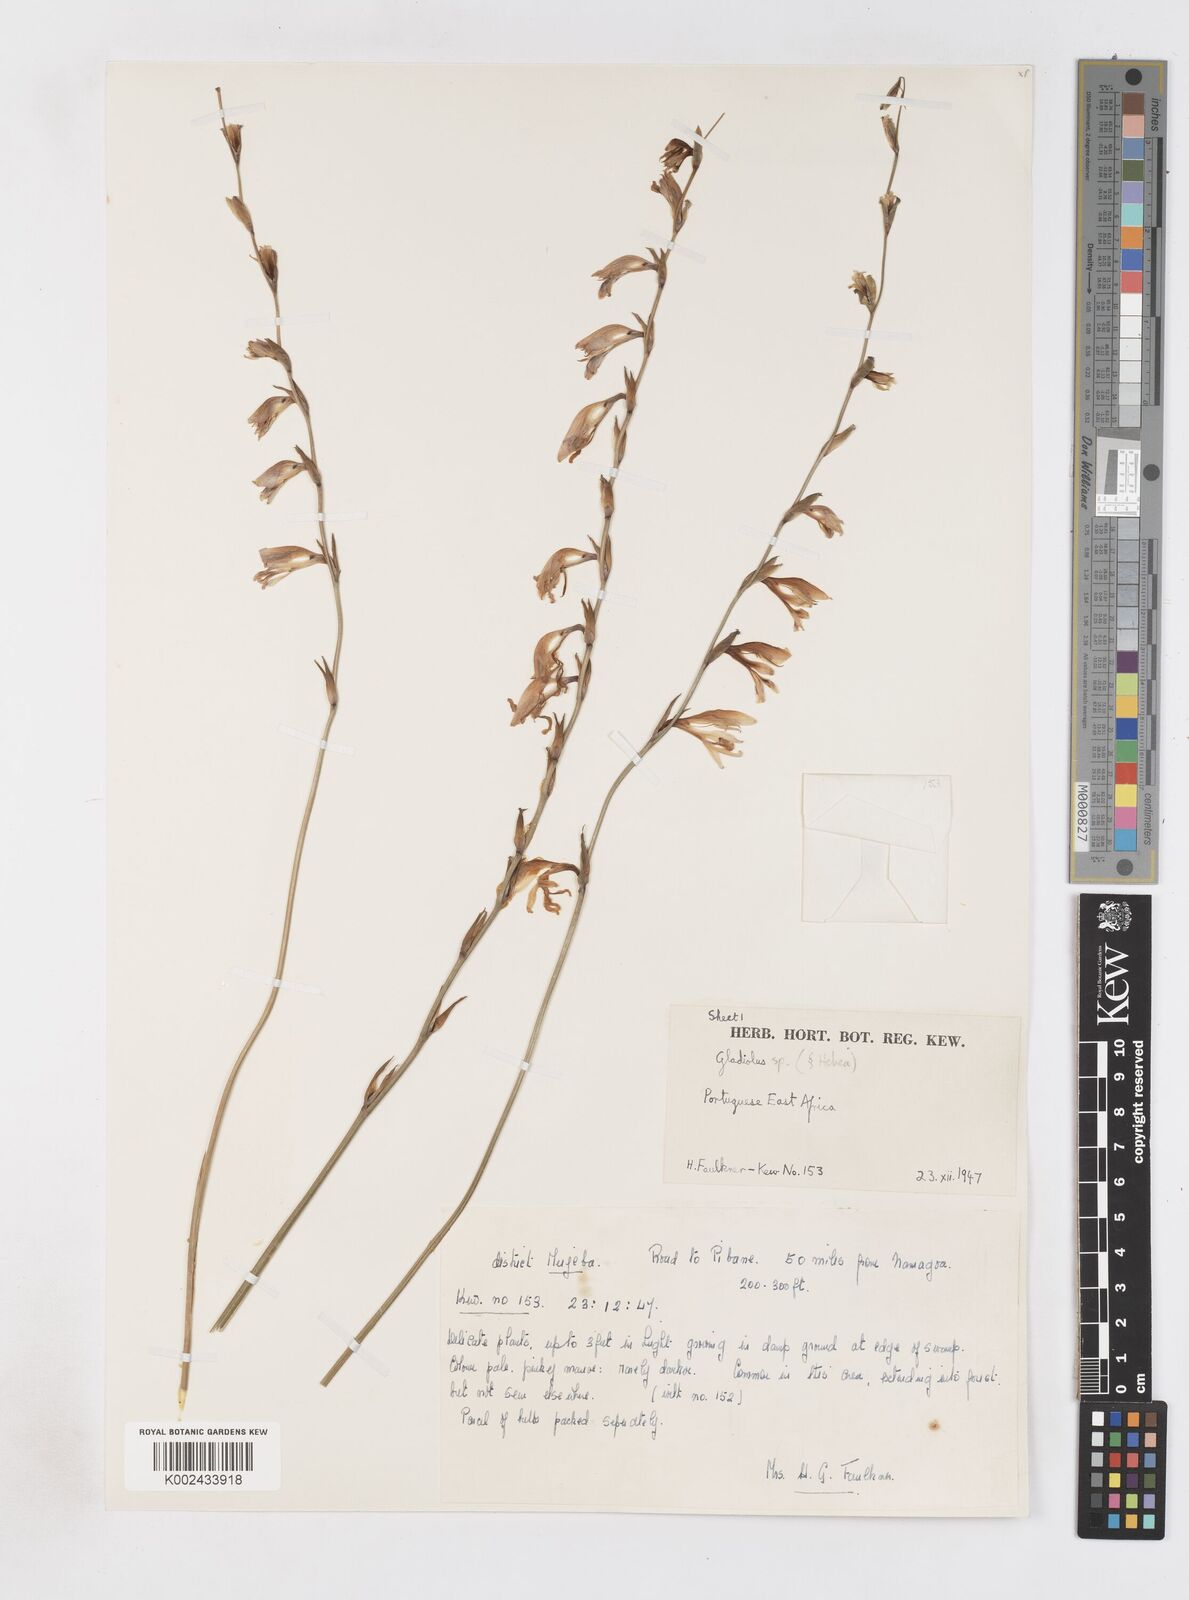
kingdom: Plantae
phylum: Tracheophyta
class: Liliopsida
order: Asparagales
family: Iridaceae
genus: Gladiolus
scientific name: Gladiolus atropurpureus
